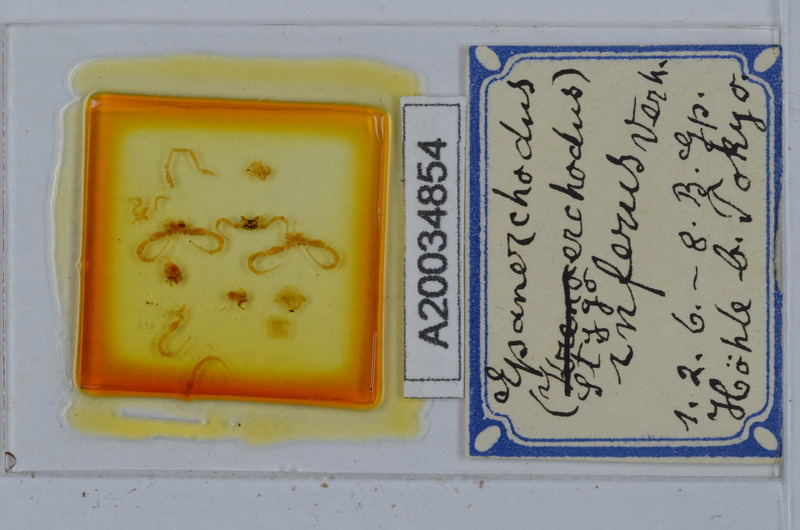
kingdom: Animalia
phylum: Arthropoda
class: Diplopoda
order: Polydesmida
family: Polydesmidae
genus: Epanerchodus
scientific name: Epanerchodus inferus
